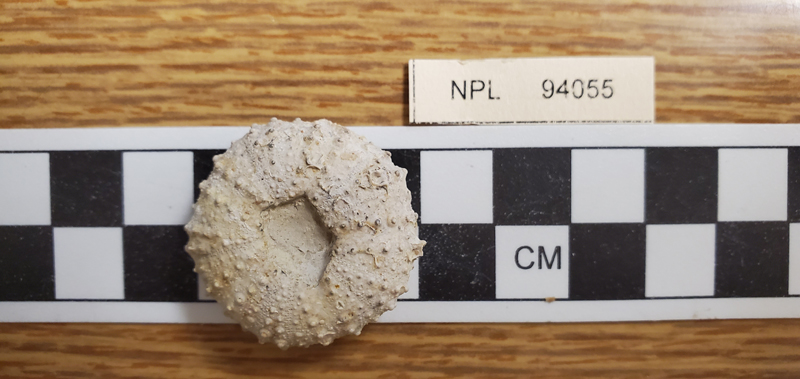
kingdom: Animalia
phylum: Echinodermata
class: Echinoidea
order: Phymosomatoida
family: Phymosomatidae
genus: Phymosoma
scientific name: Phymosoma
